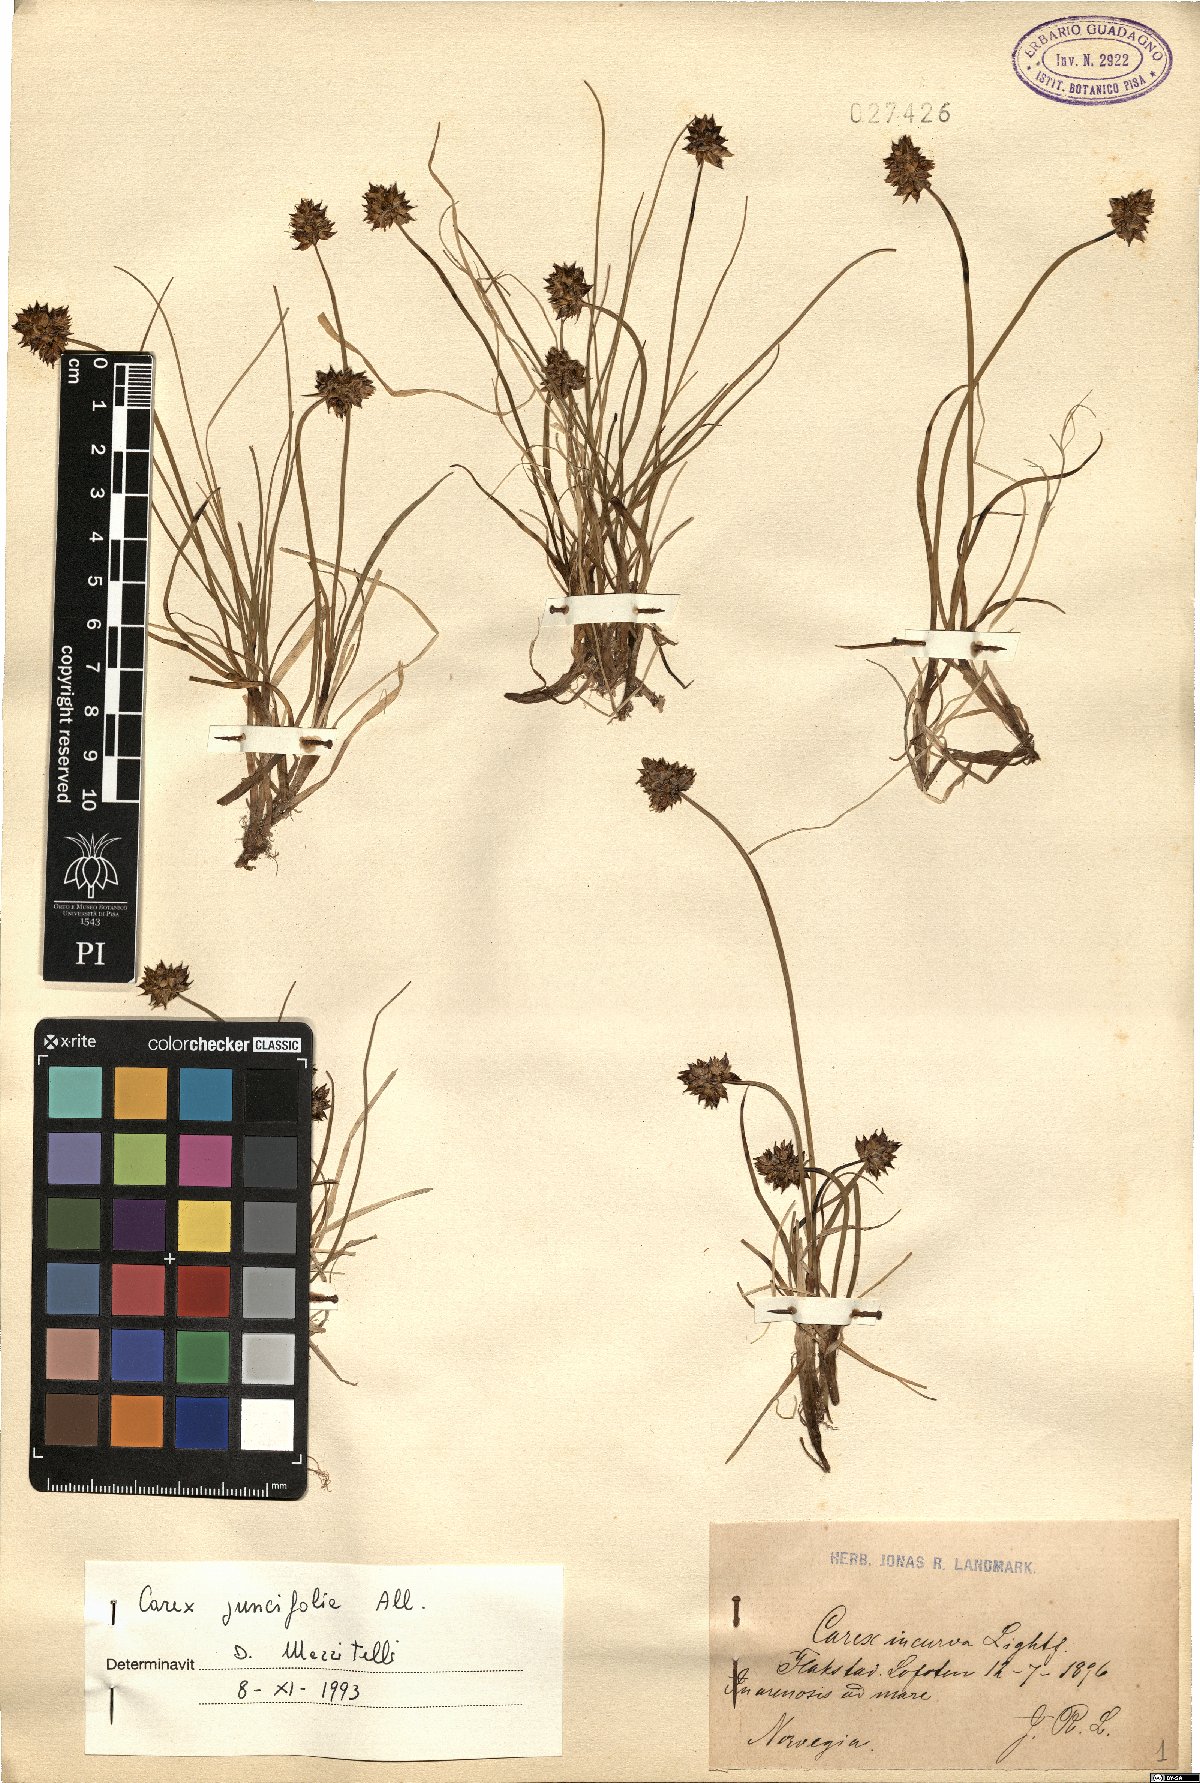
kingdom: Plantae
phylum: Tracheophyta
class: Liliopsida
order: Poales
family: Cyperaceae
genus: Carex
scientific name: Carex maritima
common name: Curved sedge
